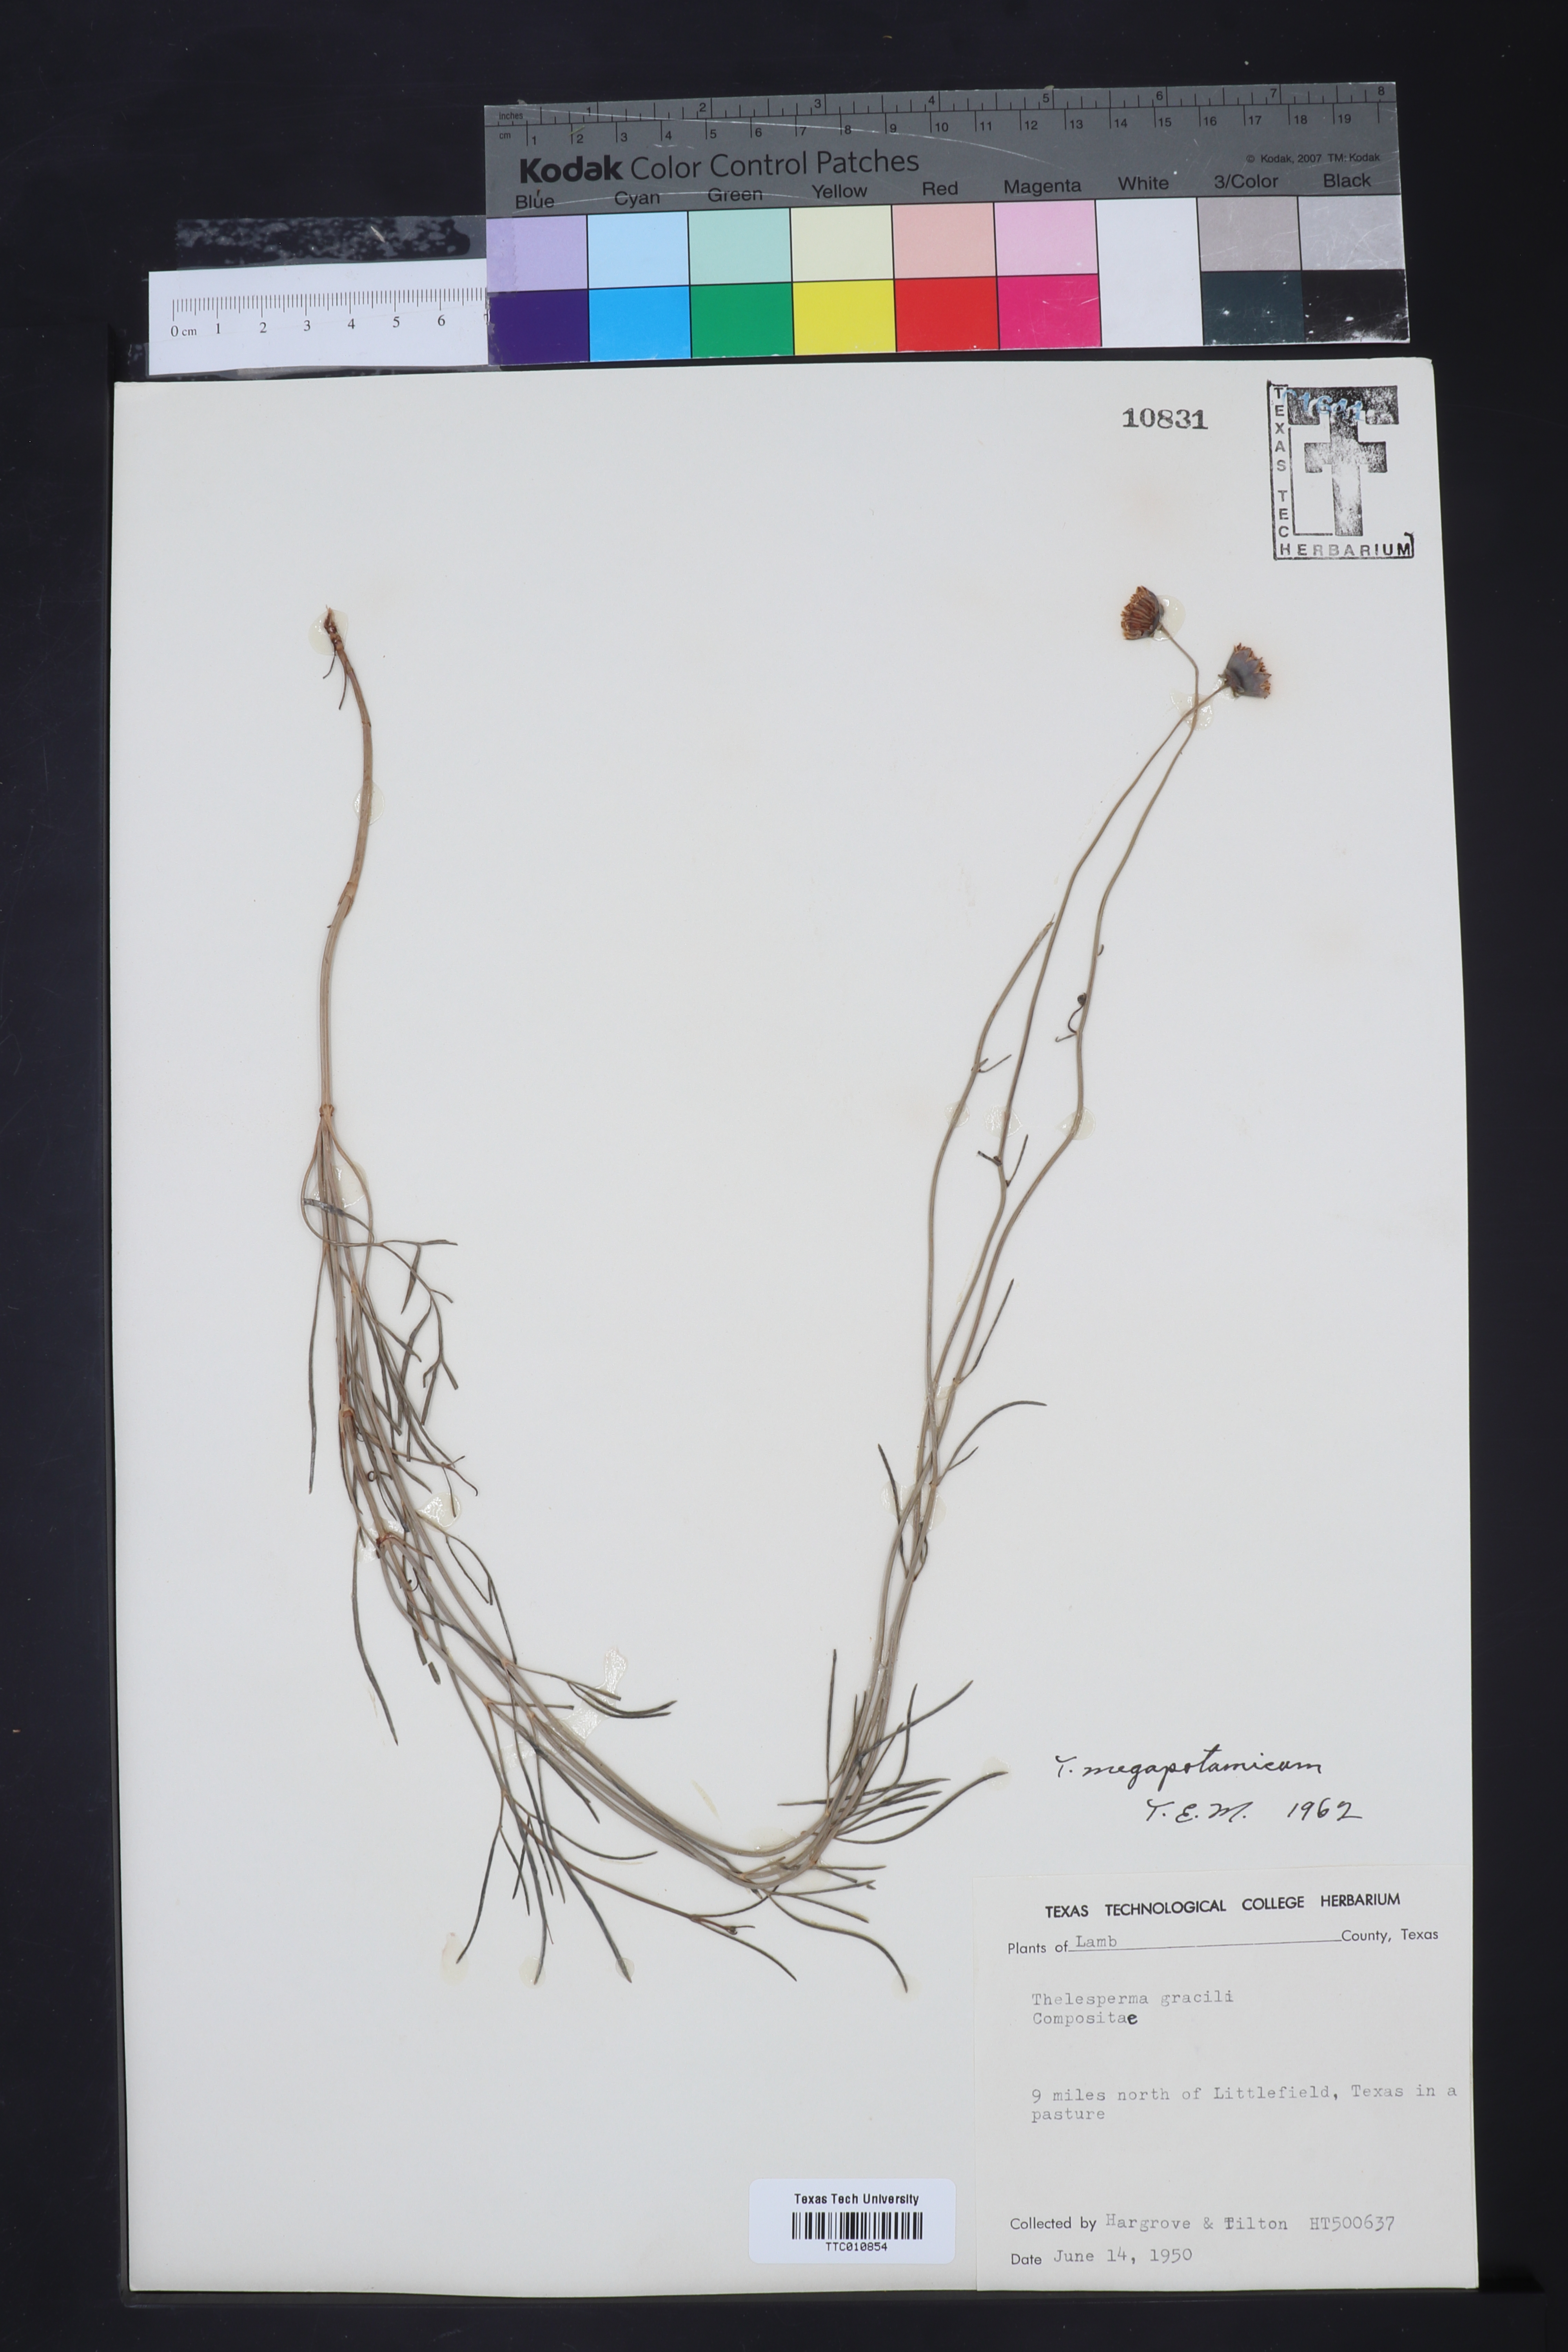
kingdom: Plantae
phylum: Tracheophyta
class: Magnoliopsida
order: Asterales
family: Asteraceae
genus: Thelesperma
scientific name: Thelesperma megapotamicum
